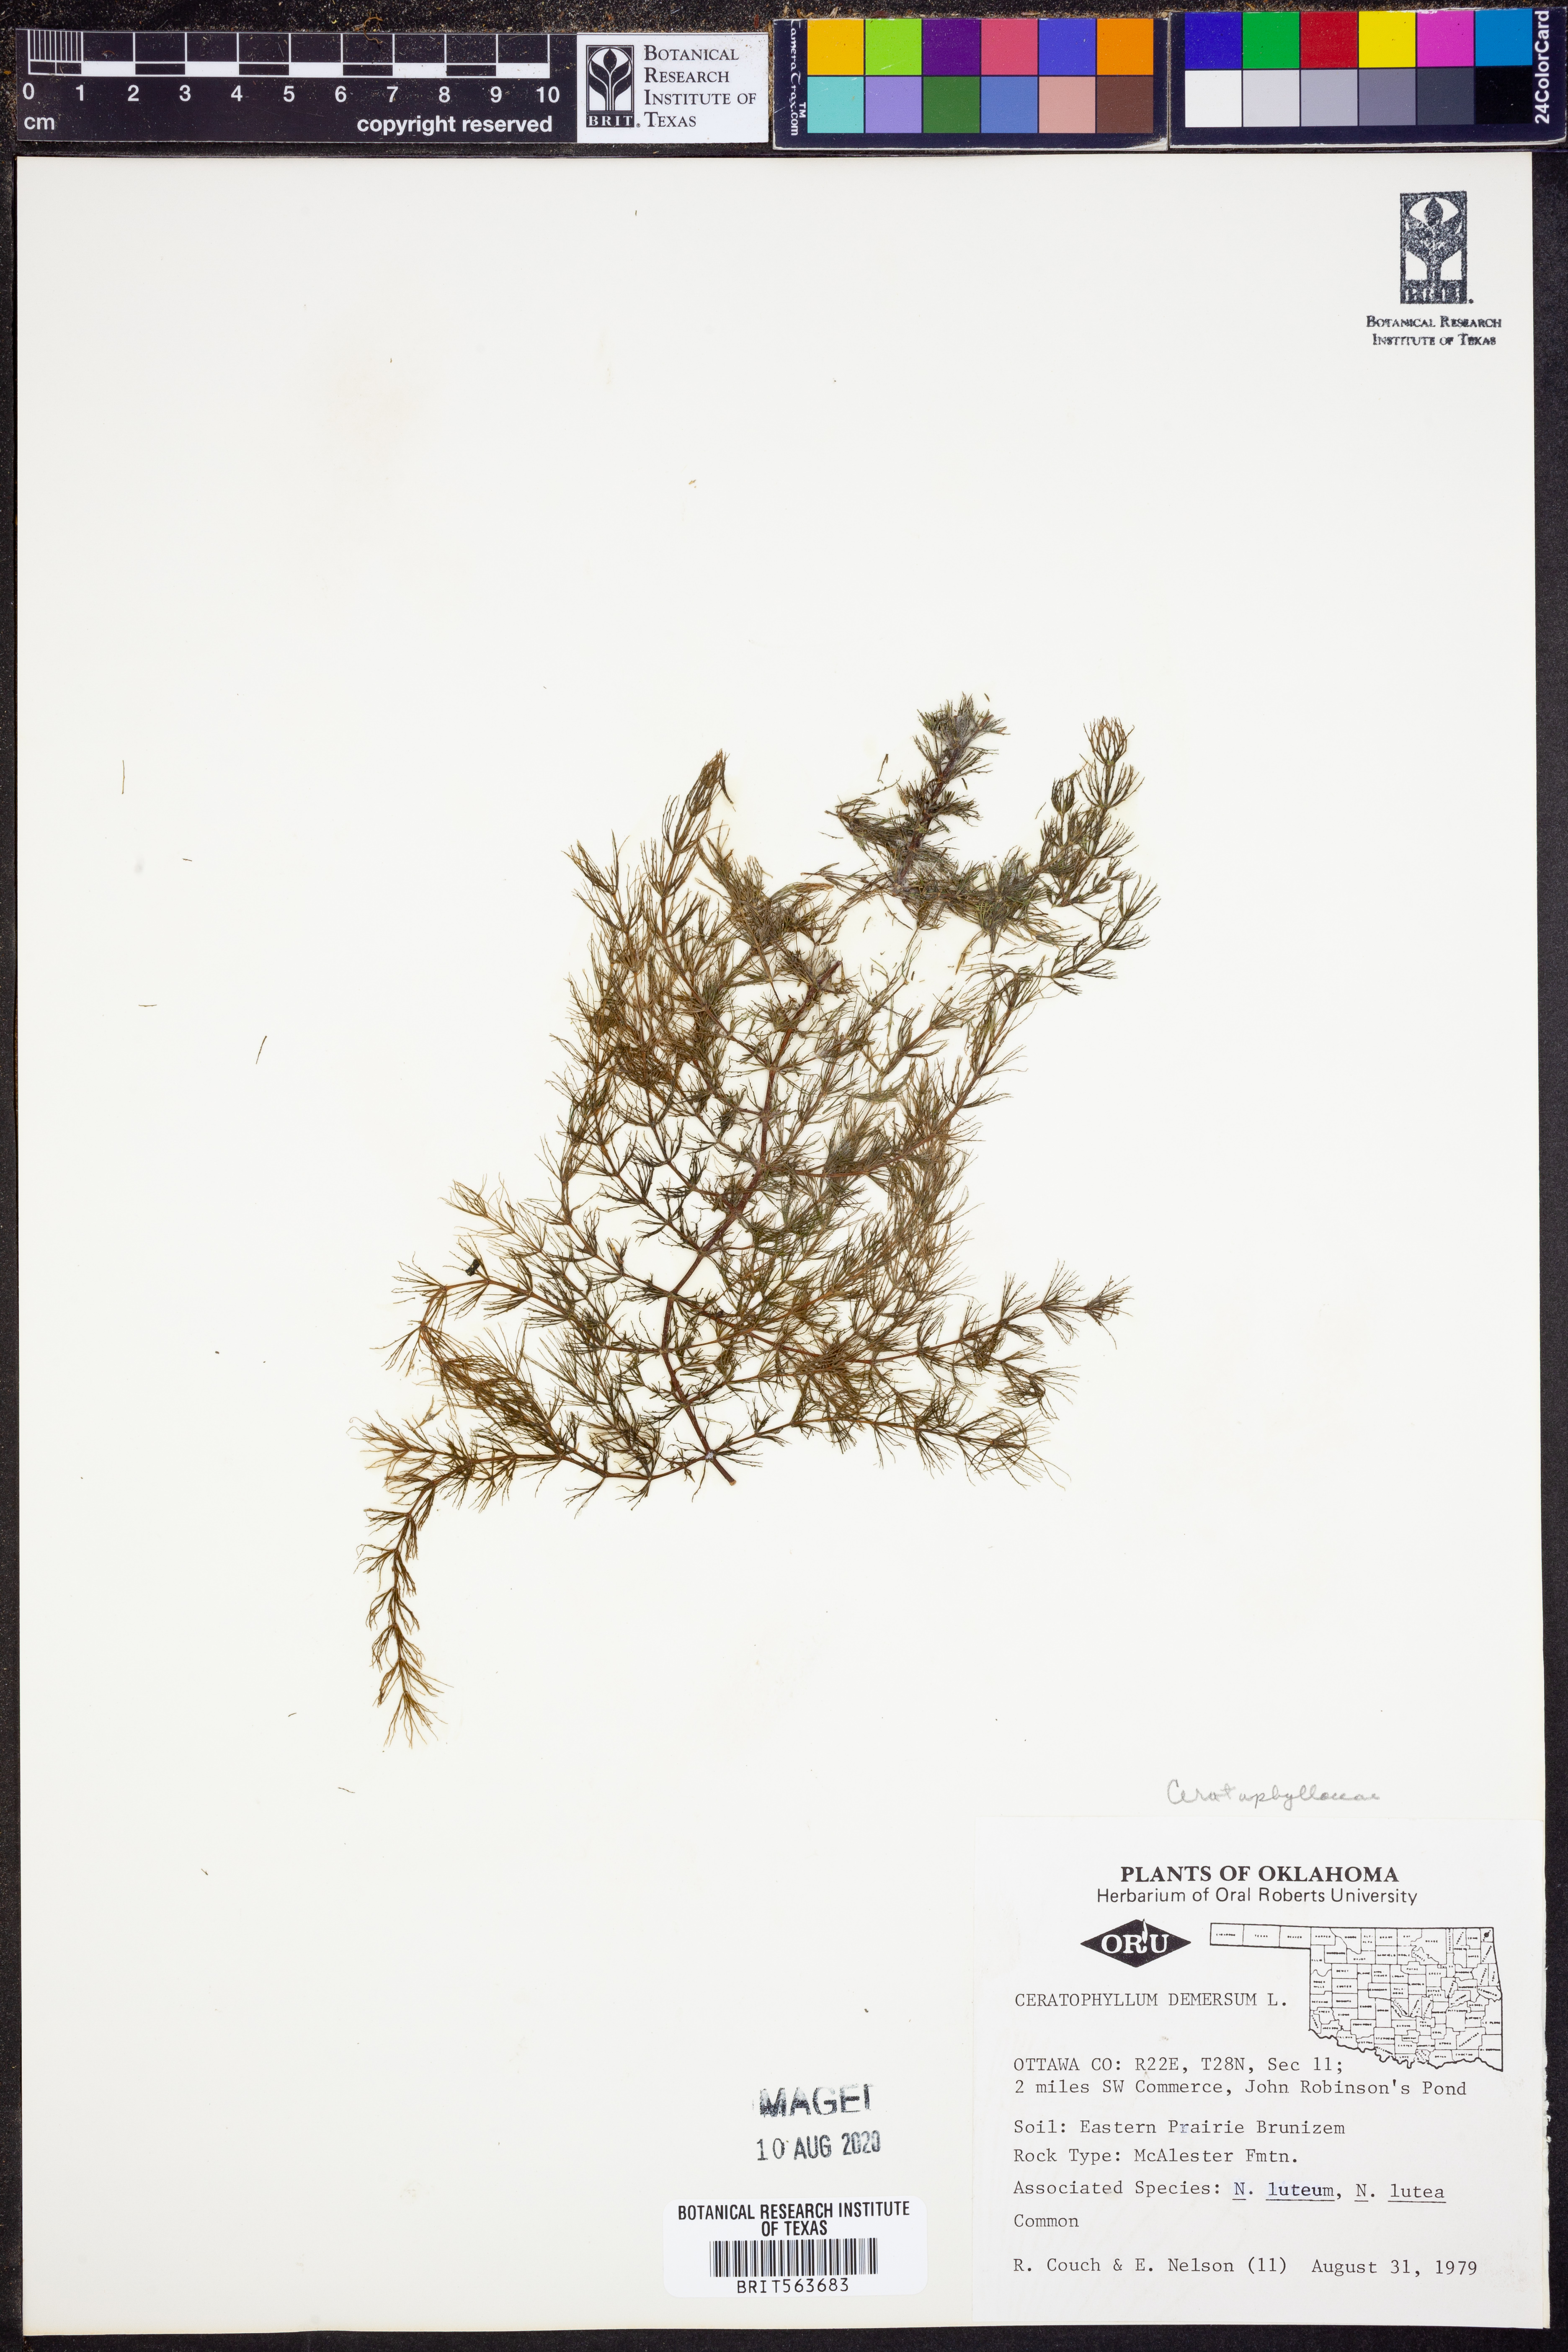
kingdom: Plantae
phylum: Tracheophyta
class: Magnoliopsida
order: Ceratophyllales
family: Ceratophyllaceae
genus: Ceratophyllum
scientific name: Ceratophyllum demersum
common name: Rigid hornwort
